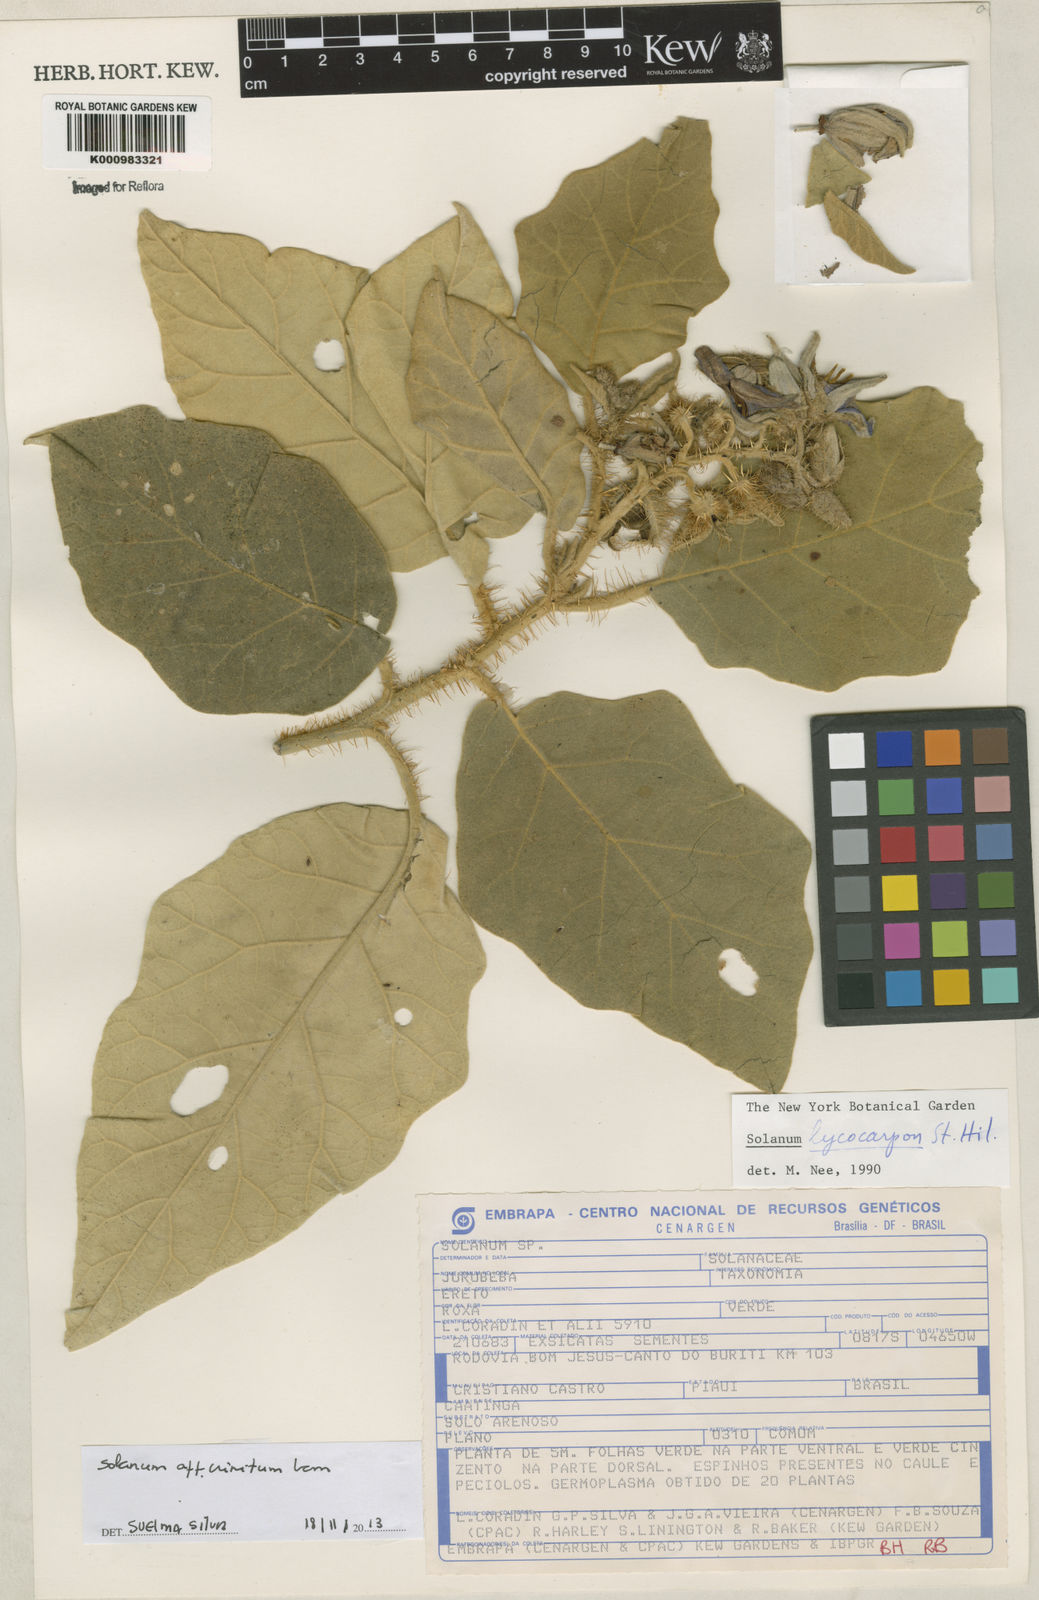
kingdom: Plantae
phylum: Tracheophyta
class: Magnoliopsida
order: Solanales
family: Solanaceae
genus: Solanum
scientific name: Solanum
